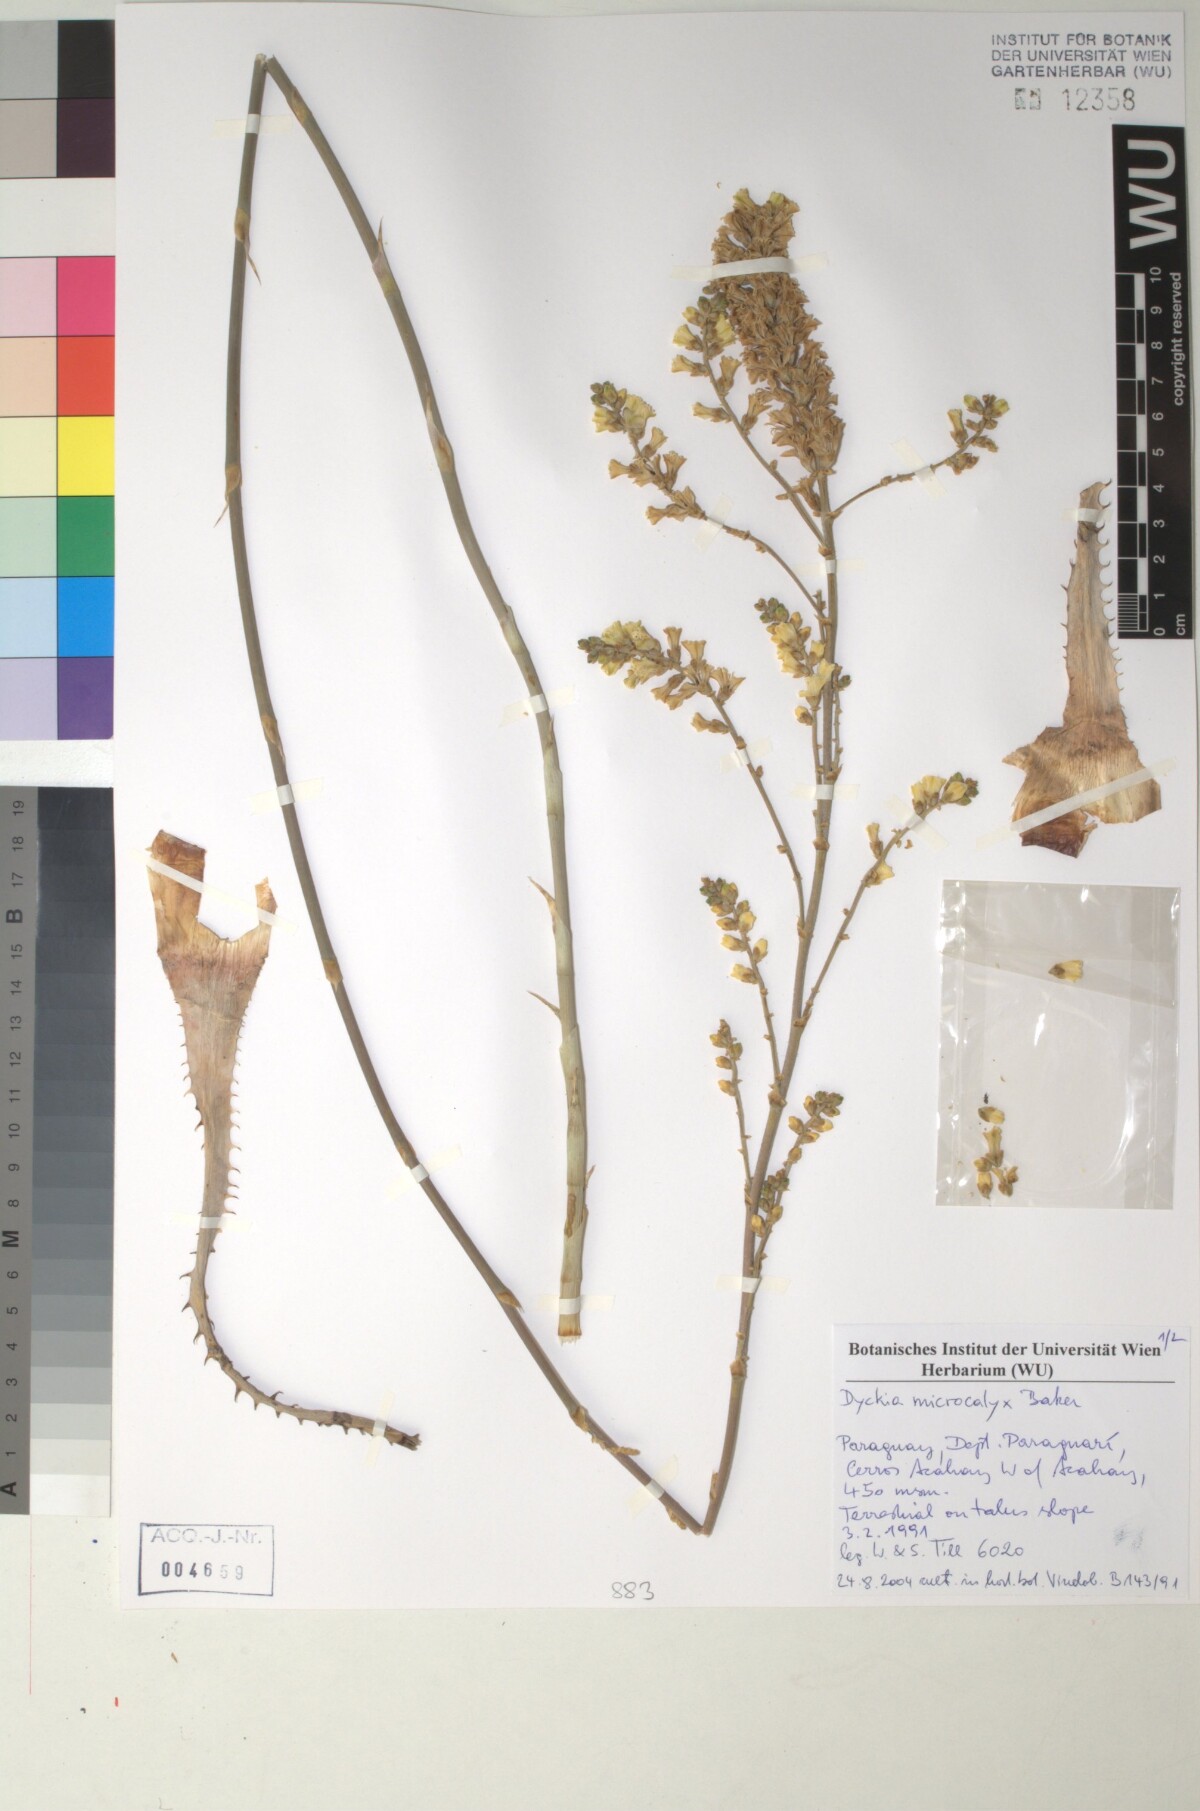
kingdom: Plantae
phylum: Tracheophyta
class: Liliopsida
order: Poales
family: Bromeliaceae
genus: Dyckia
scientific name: Dyckia microcalyx
